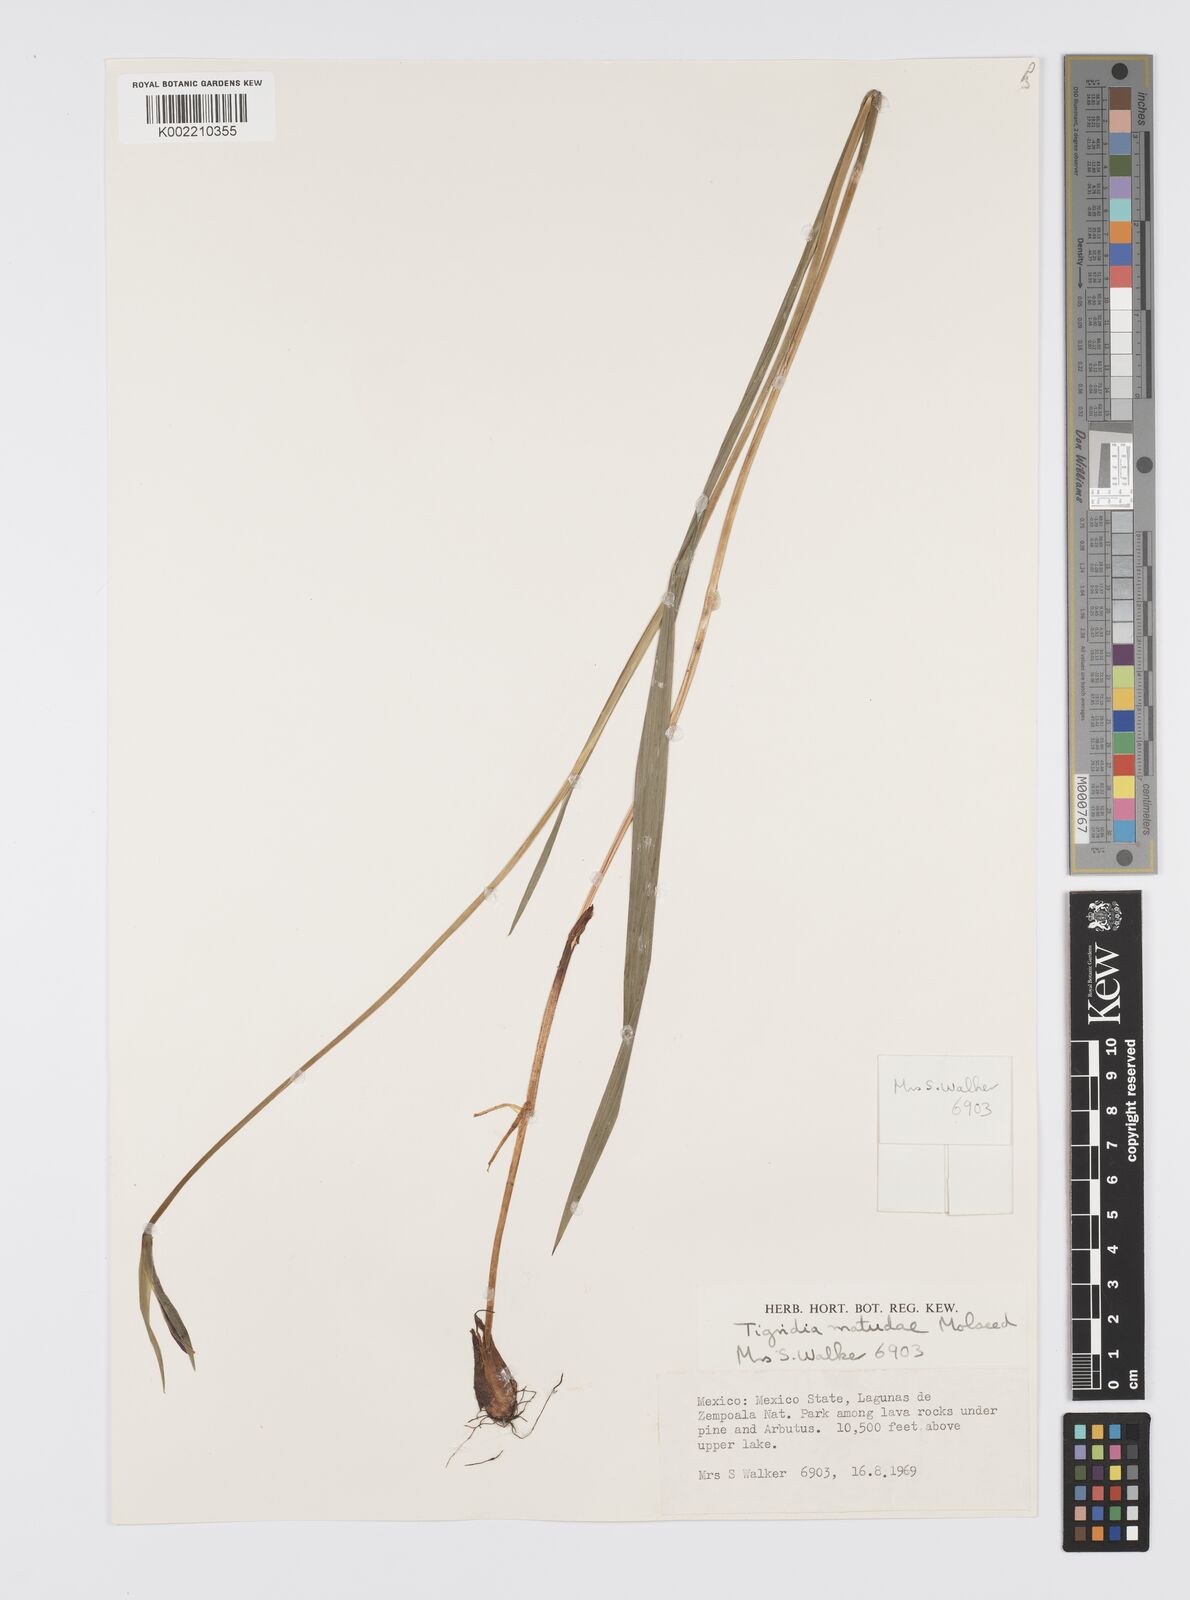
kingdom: Plantae
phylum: Tracheophyta
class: Liliopsida
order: Asparagales
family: Iridaceae
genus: Tigridia
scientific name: Tigridia matudae
